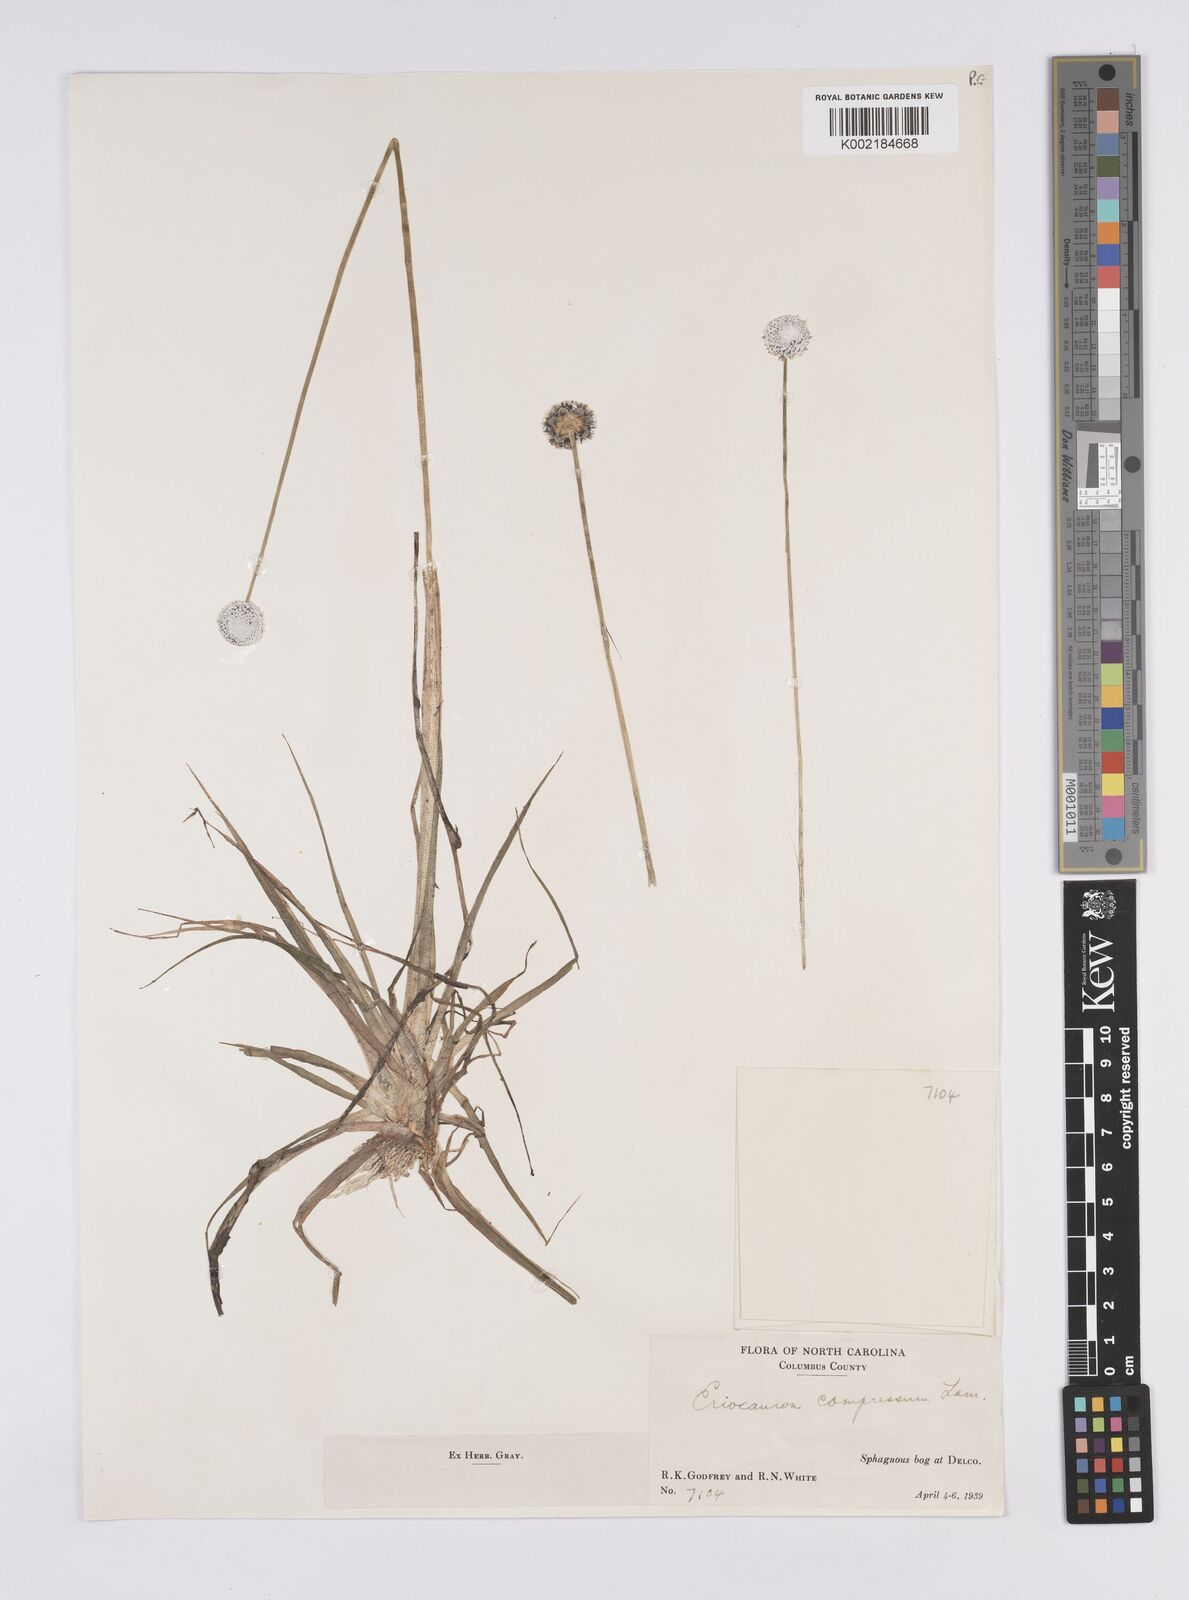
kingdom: Plantae
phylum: Tracheophyta
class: Liliopsida
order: Poales
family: Eriocaulaceae
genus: Eriocaulon
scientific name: Eriocaulon compressum
